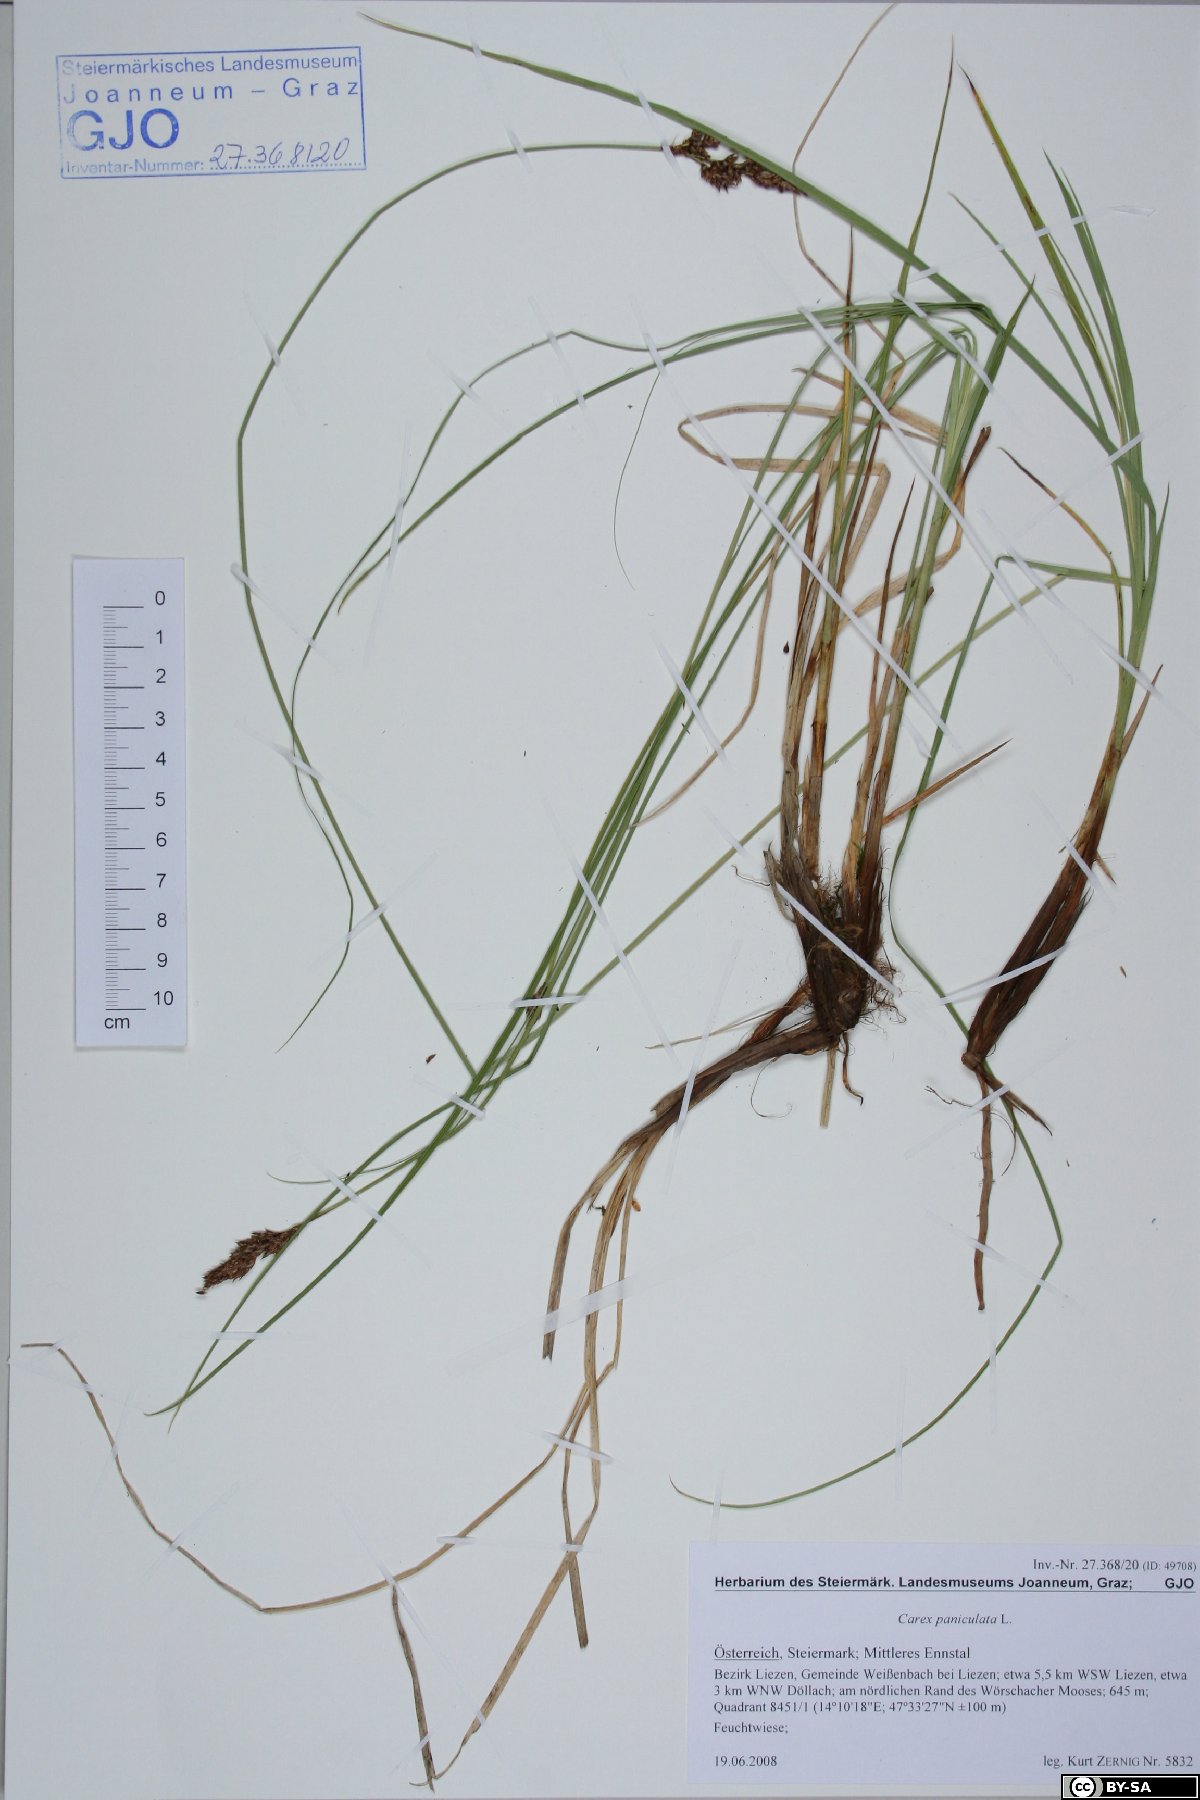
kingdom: Plantae
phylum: Tracheophyta
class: Liliopsida
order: Poales
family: Cyperaceae
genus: Carex
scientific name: Carex paniculata
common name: Greater tussock-sedge
